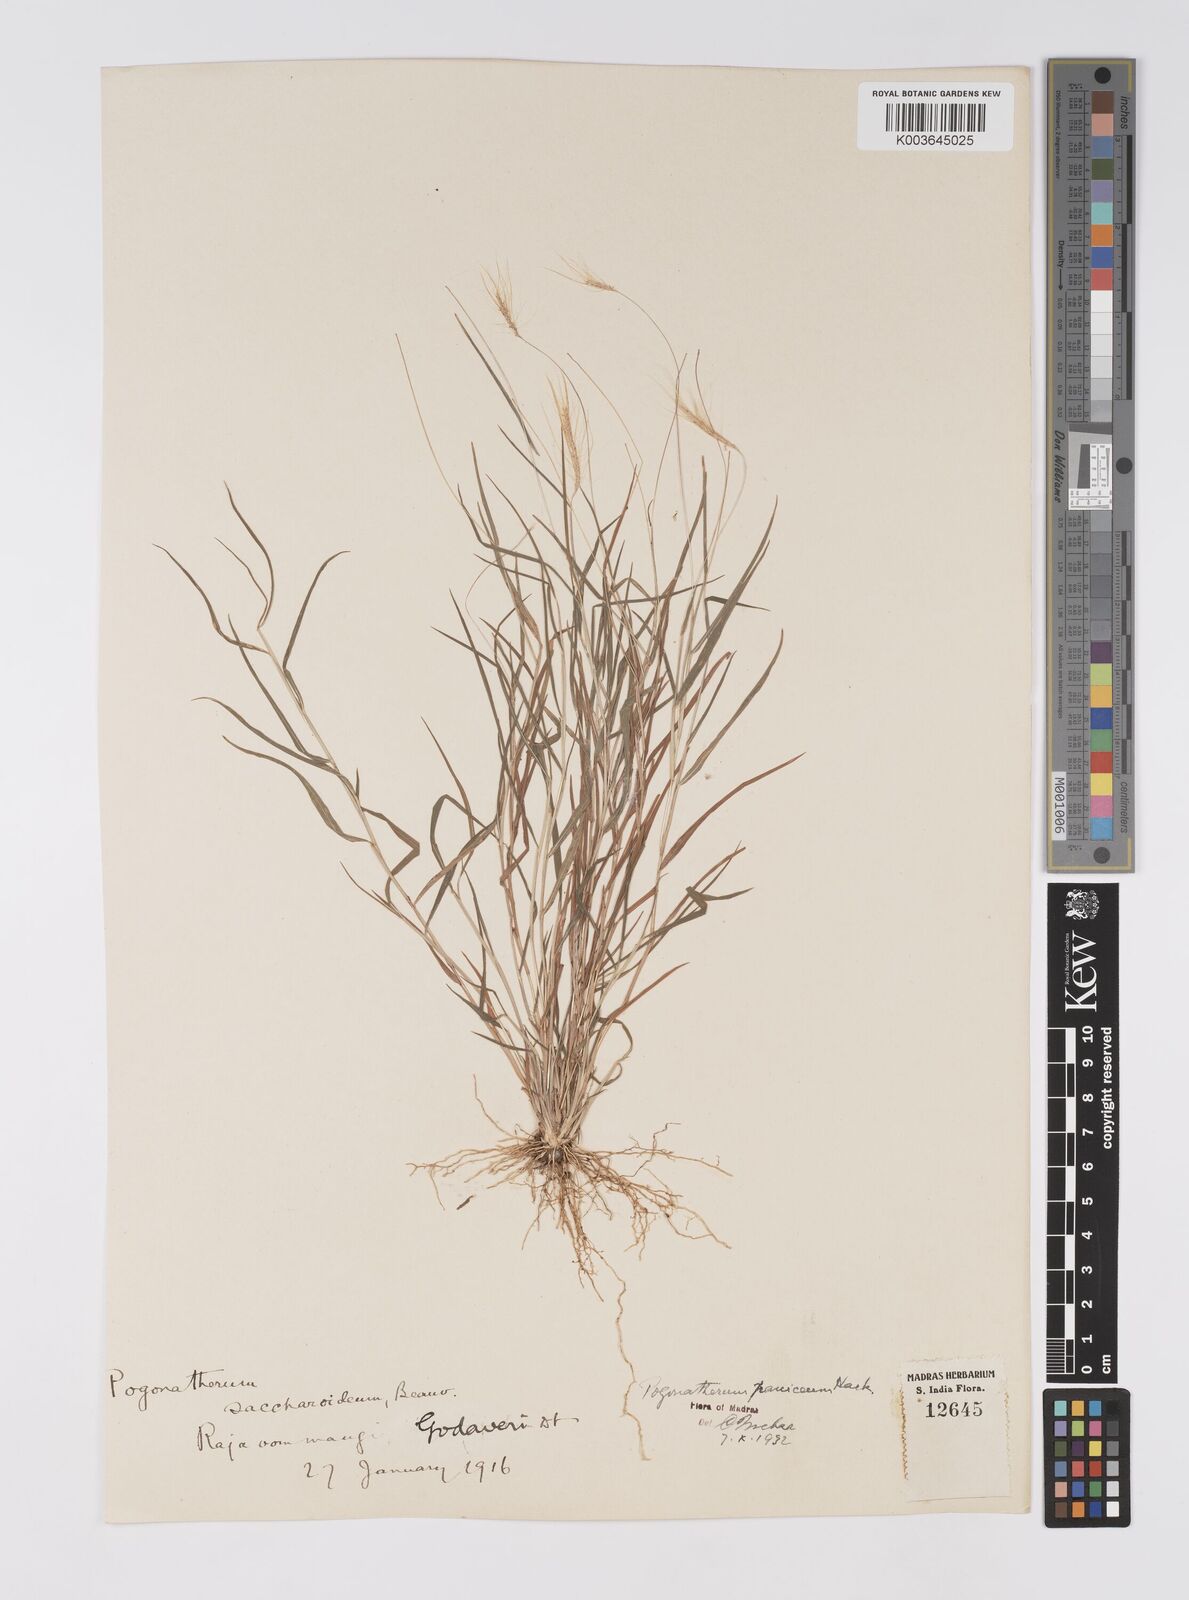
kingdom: Plantae
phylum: Tracheophyta
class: Liliopsida
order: Poales
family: Poaceae
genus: Pogonatherum
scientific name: Pogonatherum crinitum
